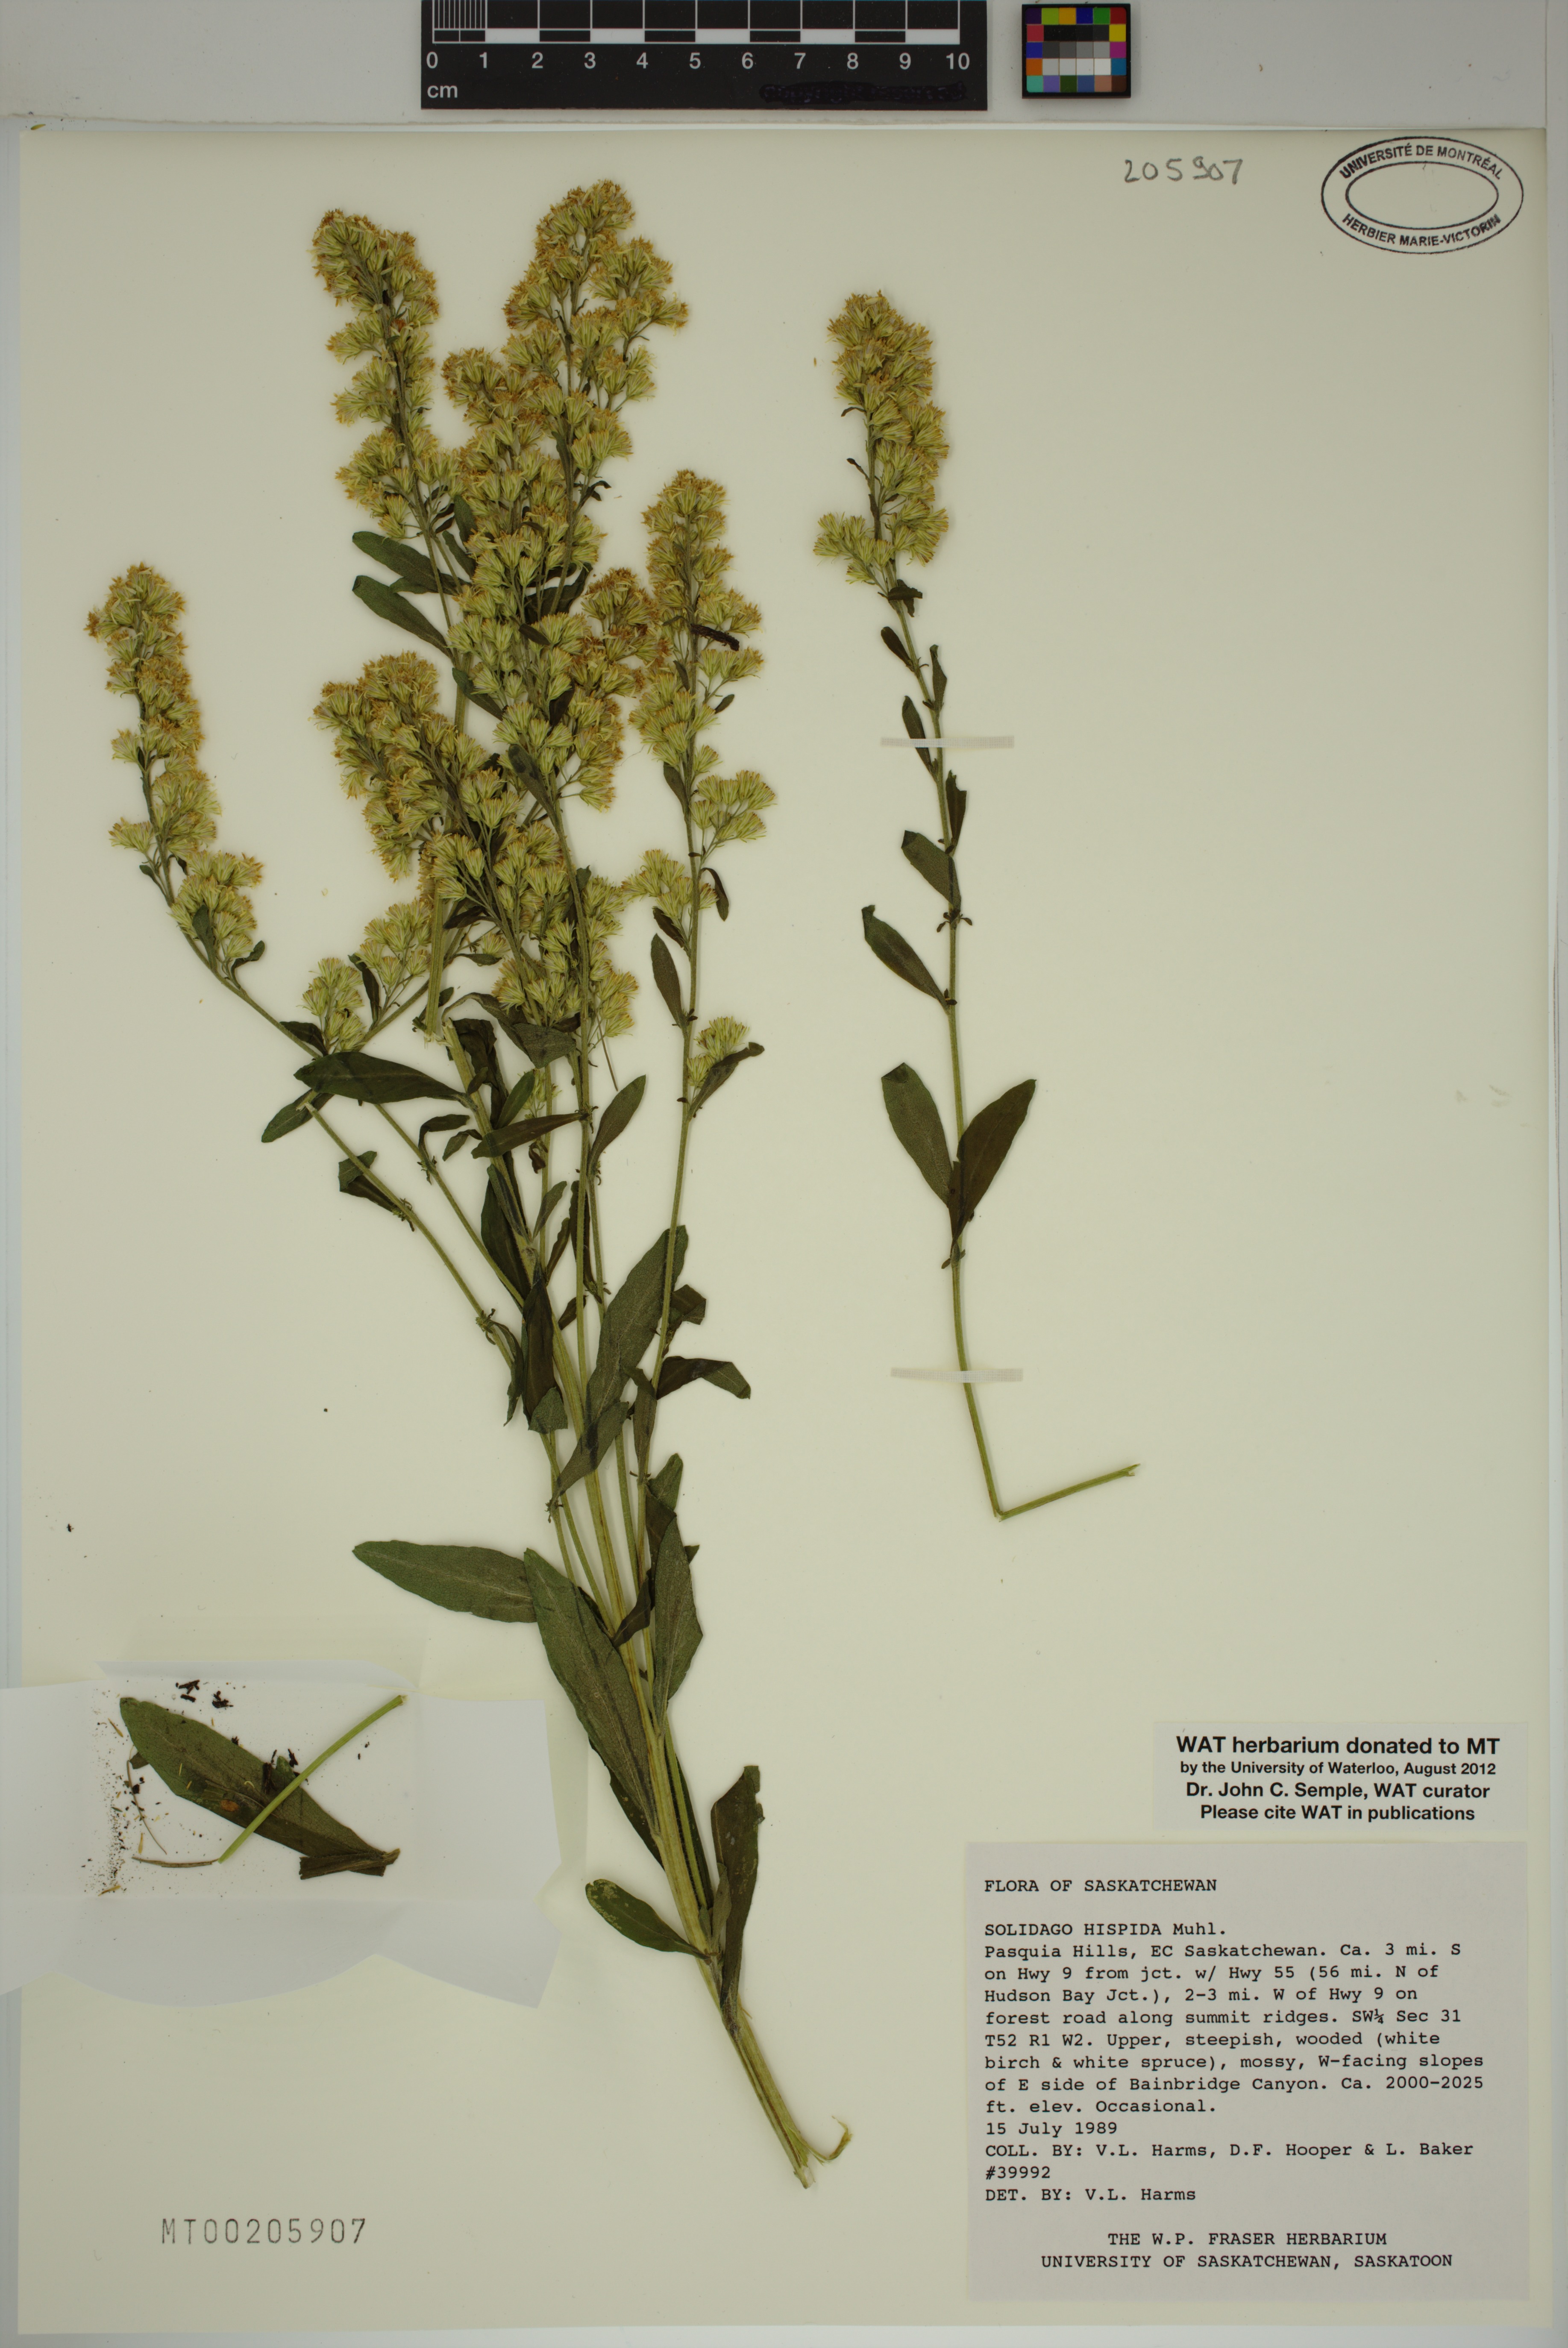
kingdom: Plantae
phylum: Tracheophyta
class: Magnoliopsida
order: Asterales
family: Asteraceae
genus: Solidago
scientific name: Solidago hispida
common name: Hairy goldenrod
